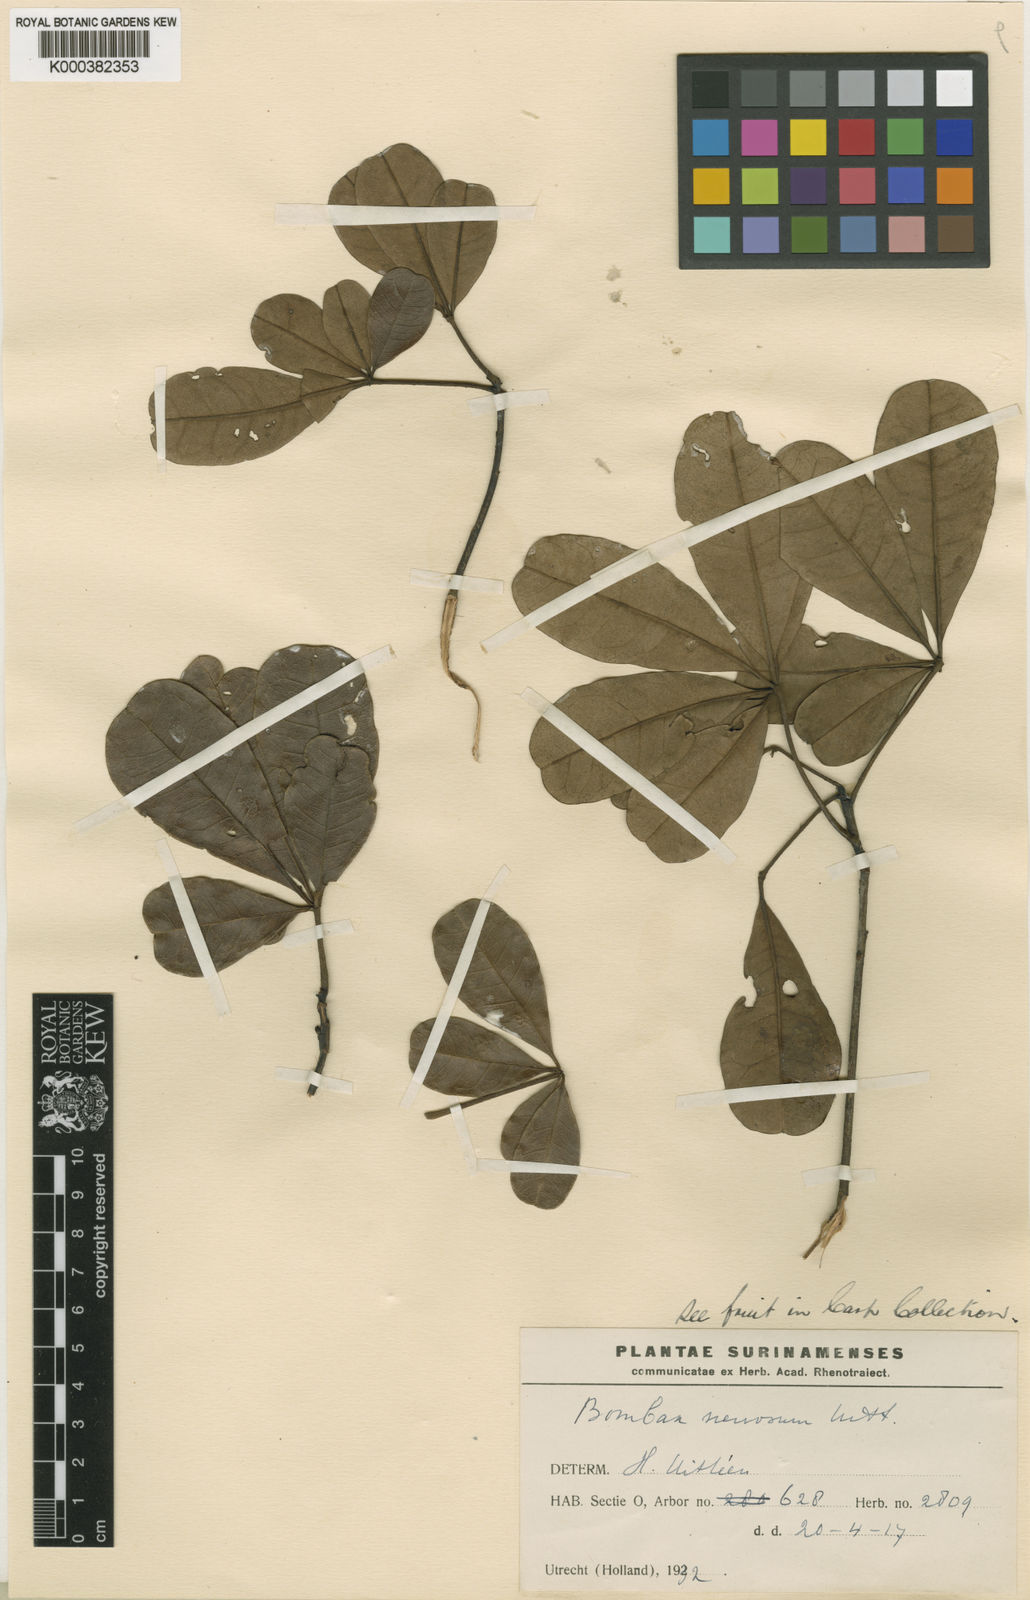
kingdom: Plantae
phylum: Tracheophyta
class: Magnoliopsida
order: Malvales
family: Malvaceae
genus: Pachira
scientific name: Pachira nervosa
